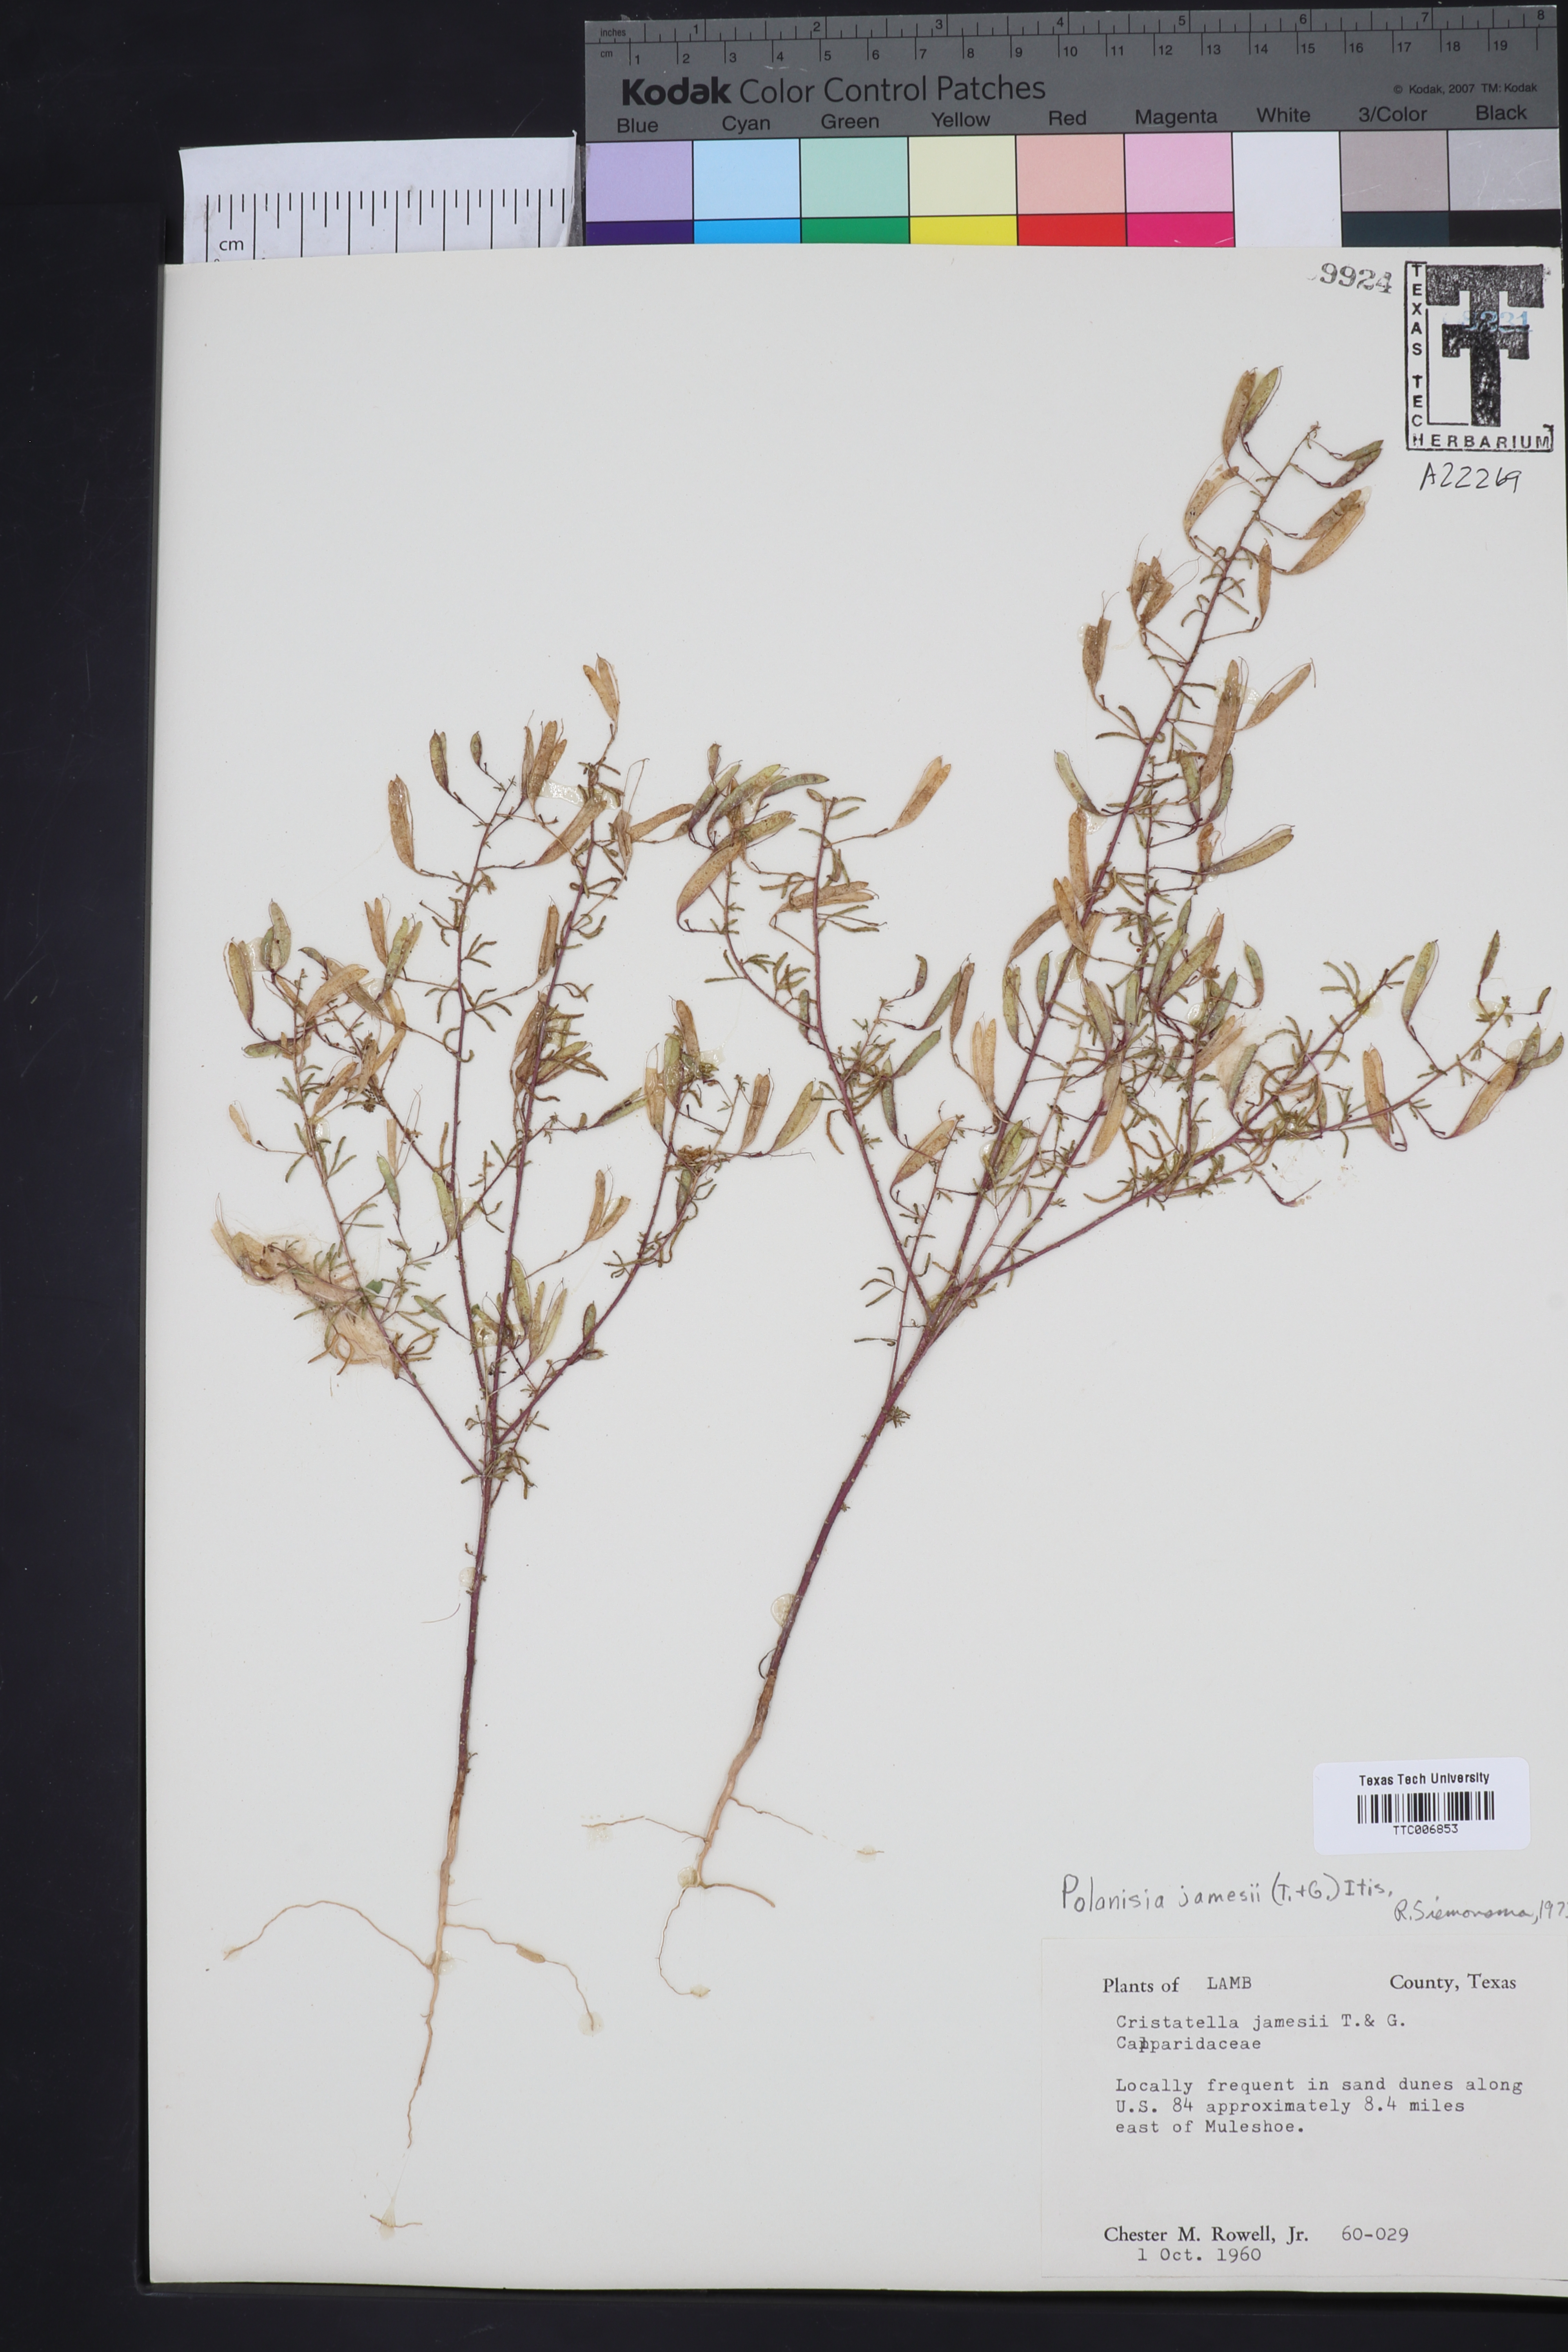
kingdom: Plantae
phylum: Tracheophyta
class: Magnoliopsida
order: Brassicales
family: Cleomaceae
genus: Polanisia
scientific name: Polanisia jamesii
